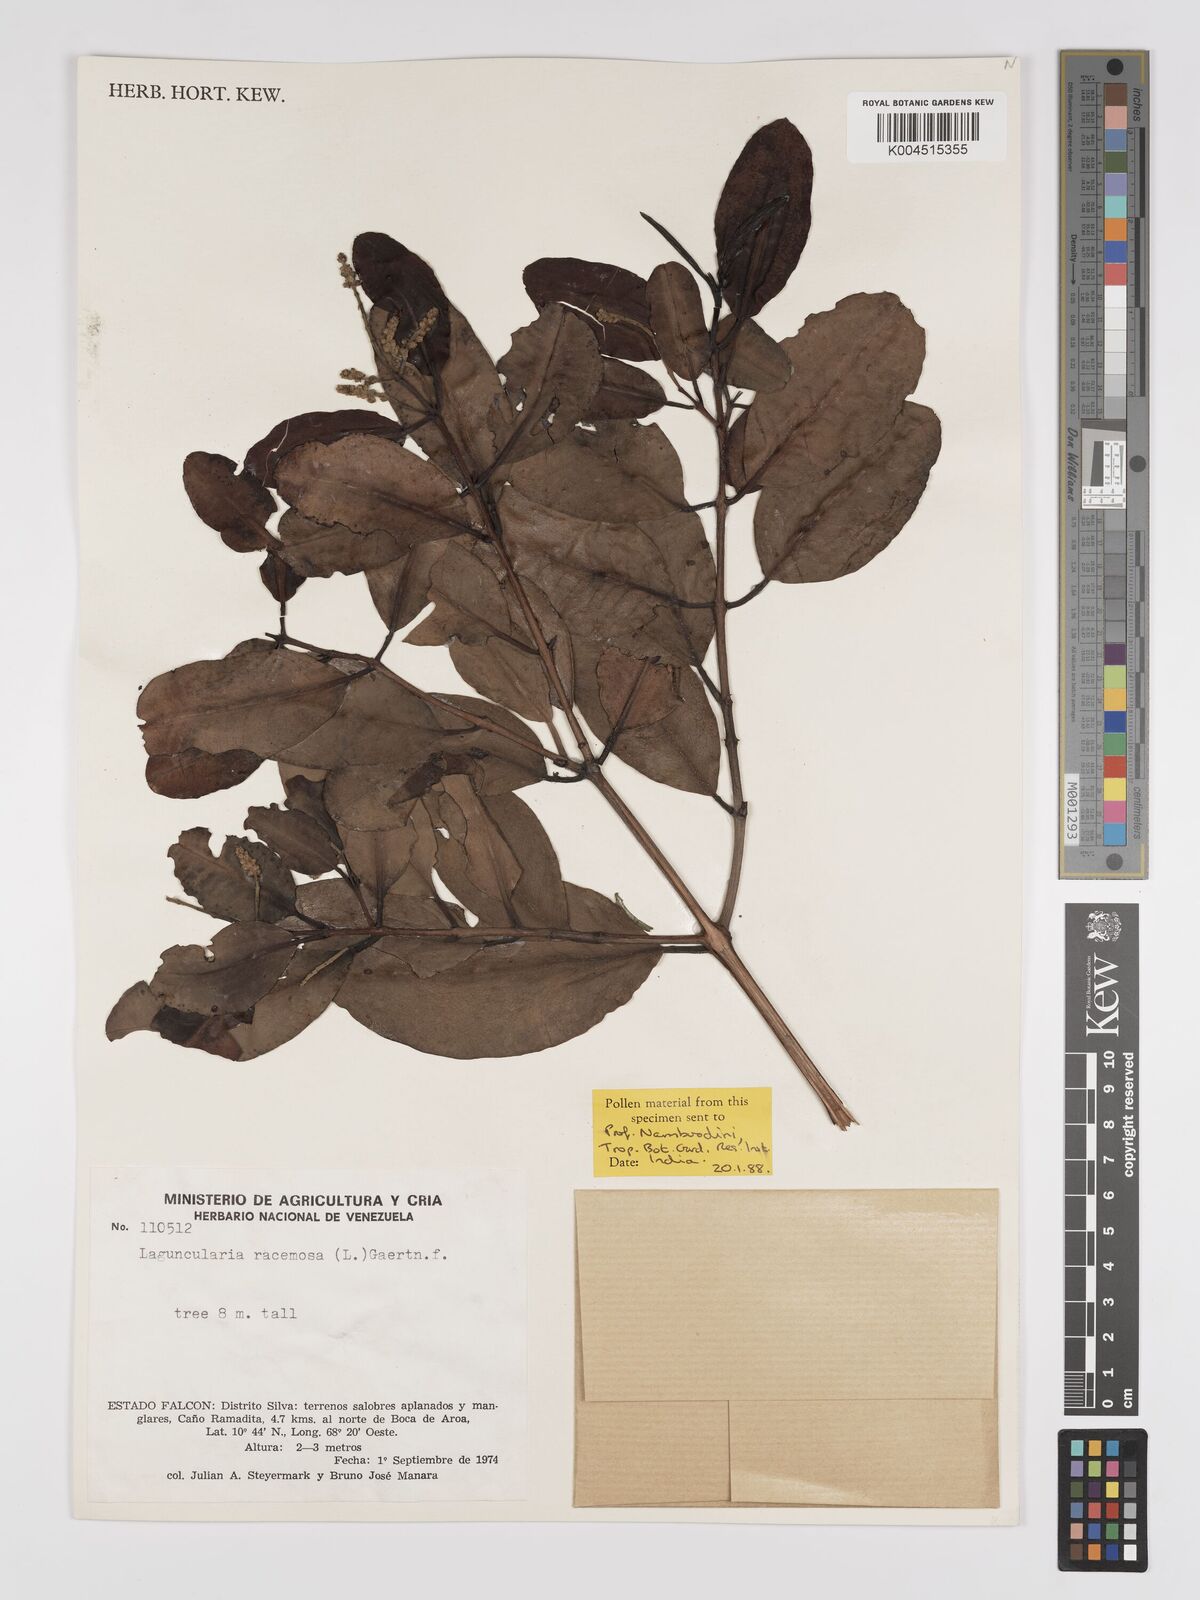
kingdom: Plantae
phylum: Tracheophyta
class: Magnoliopsida
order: Myrtales
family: Combretaceae
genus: Laguncularia
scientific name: Laguncularia racemosa
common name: White mangrove
